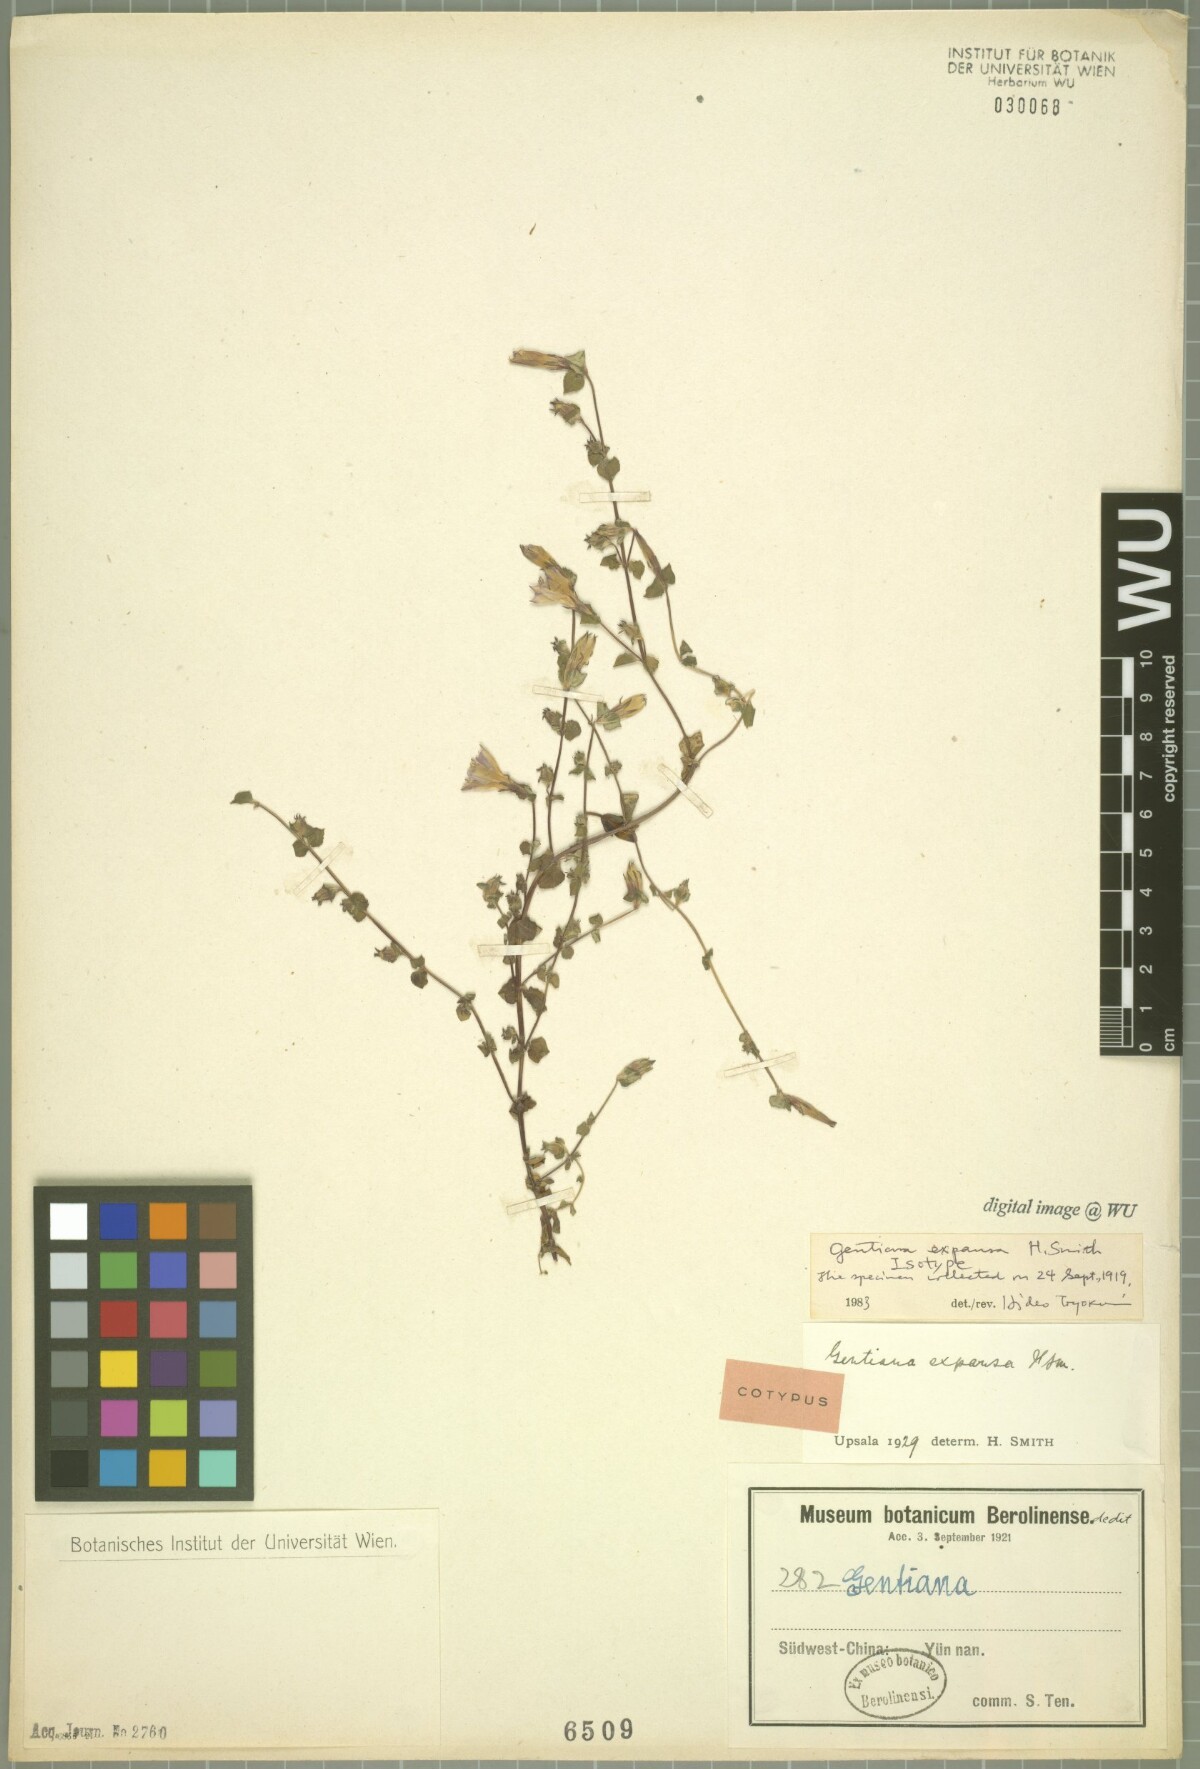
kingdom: Plantae
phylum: Tracheophyta
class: Magnoliopsida
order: Gentianales
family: Gentianaceae
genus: Metagentiana
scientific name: Metagentiana expansa
